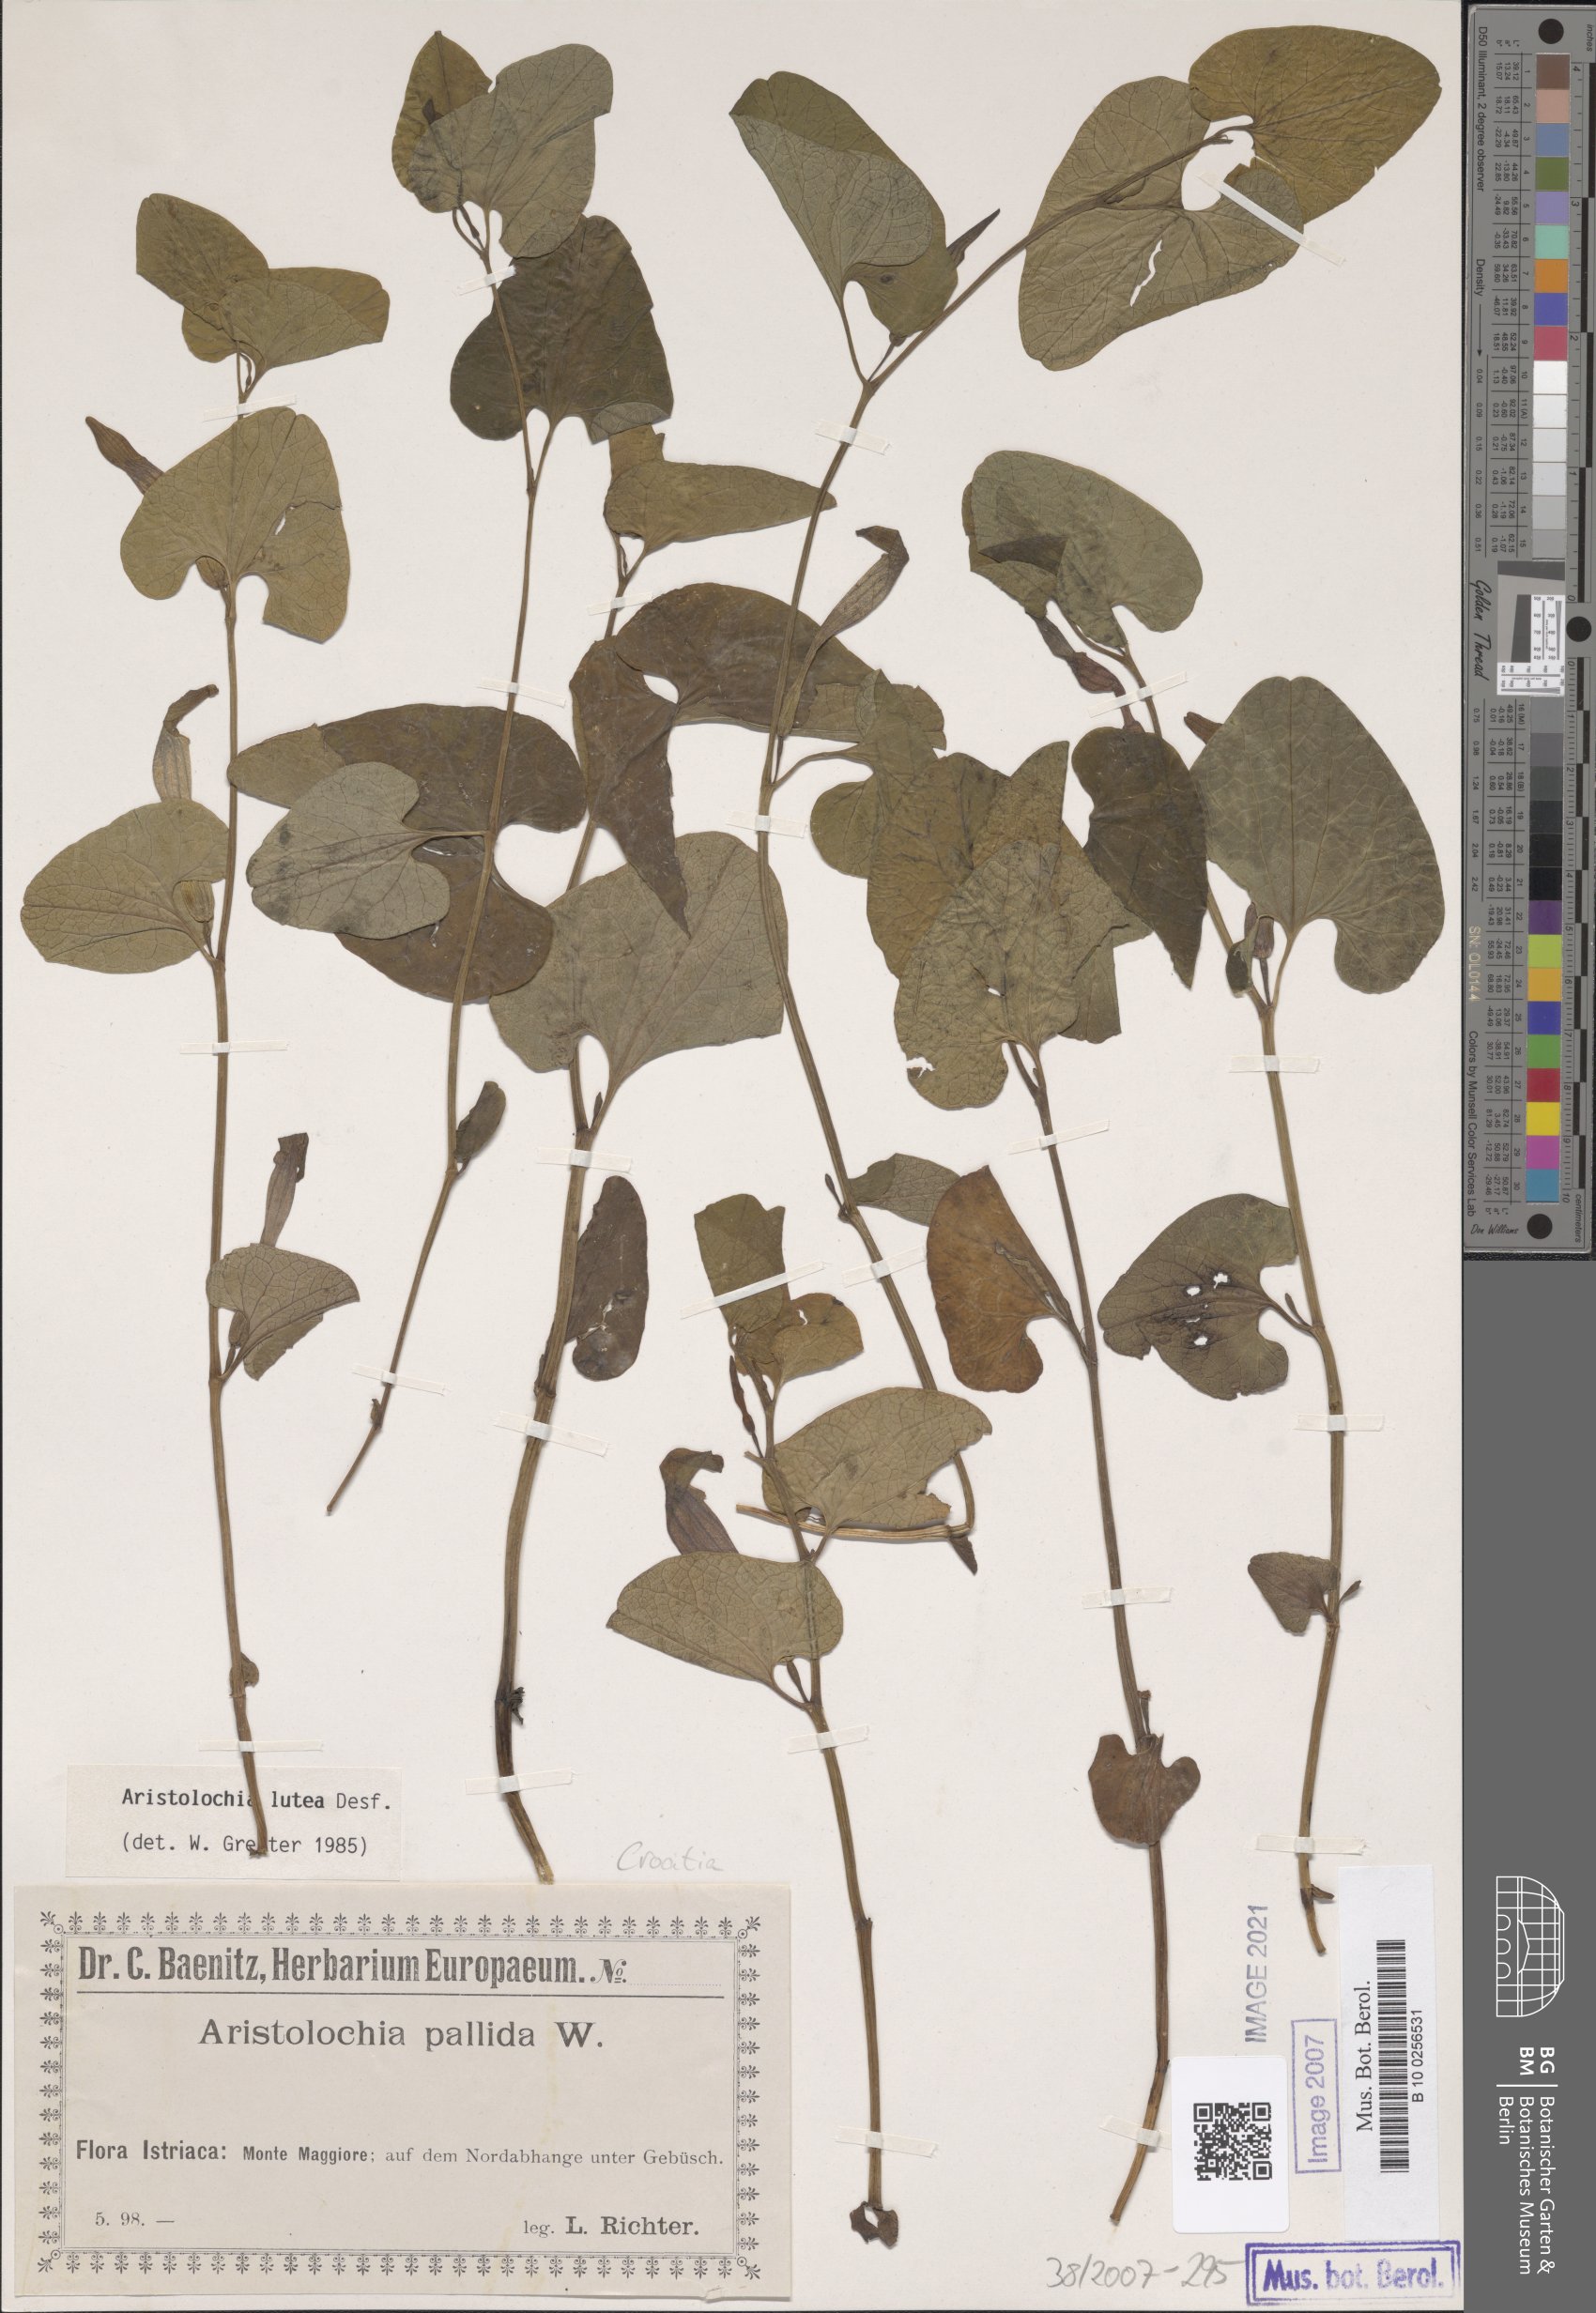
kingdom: Plantae
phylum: Tracheophyta
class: Magnoliopsida
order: Piperales
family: Aristolochiaceae
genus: Aristolochia
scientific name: Aristolochia lutea
